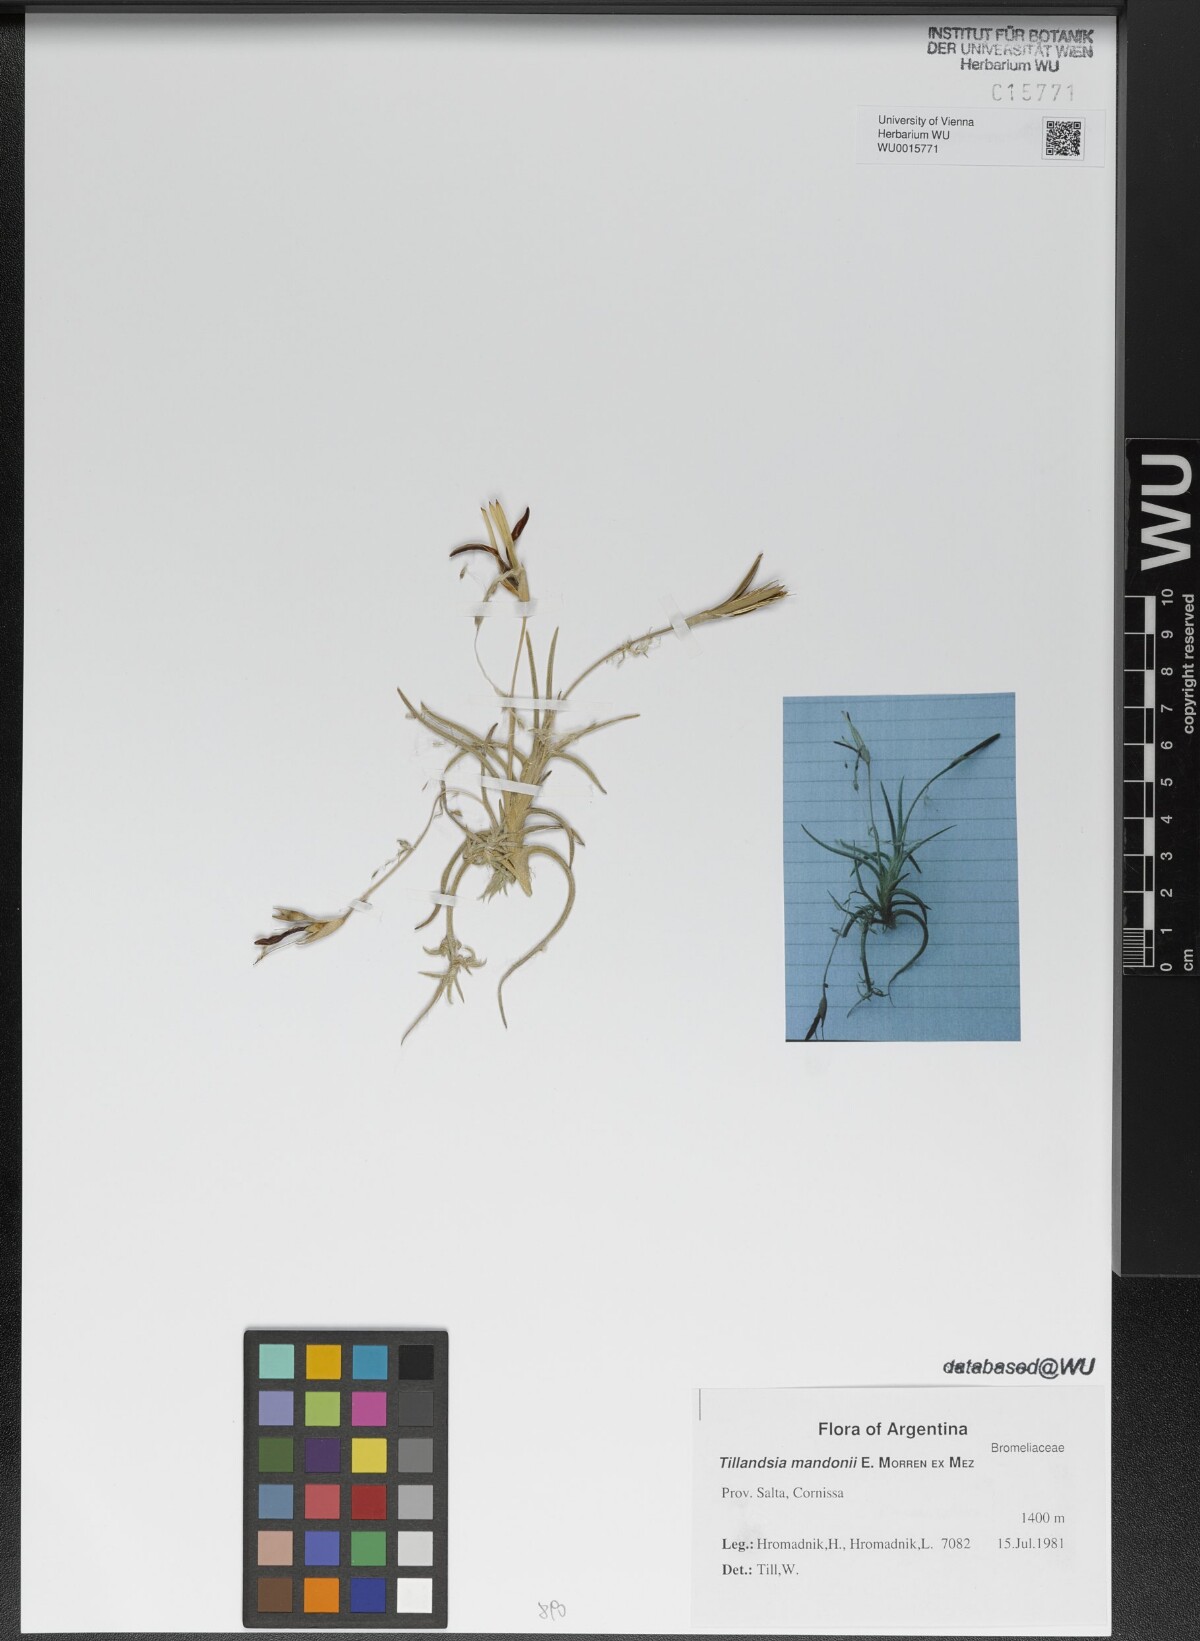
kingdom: Plantae
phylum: Tracheophyta
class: Liliopsida
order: Poales
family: Bromeliaceae
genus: Tillandsia
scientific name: Tillandsia crocata
